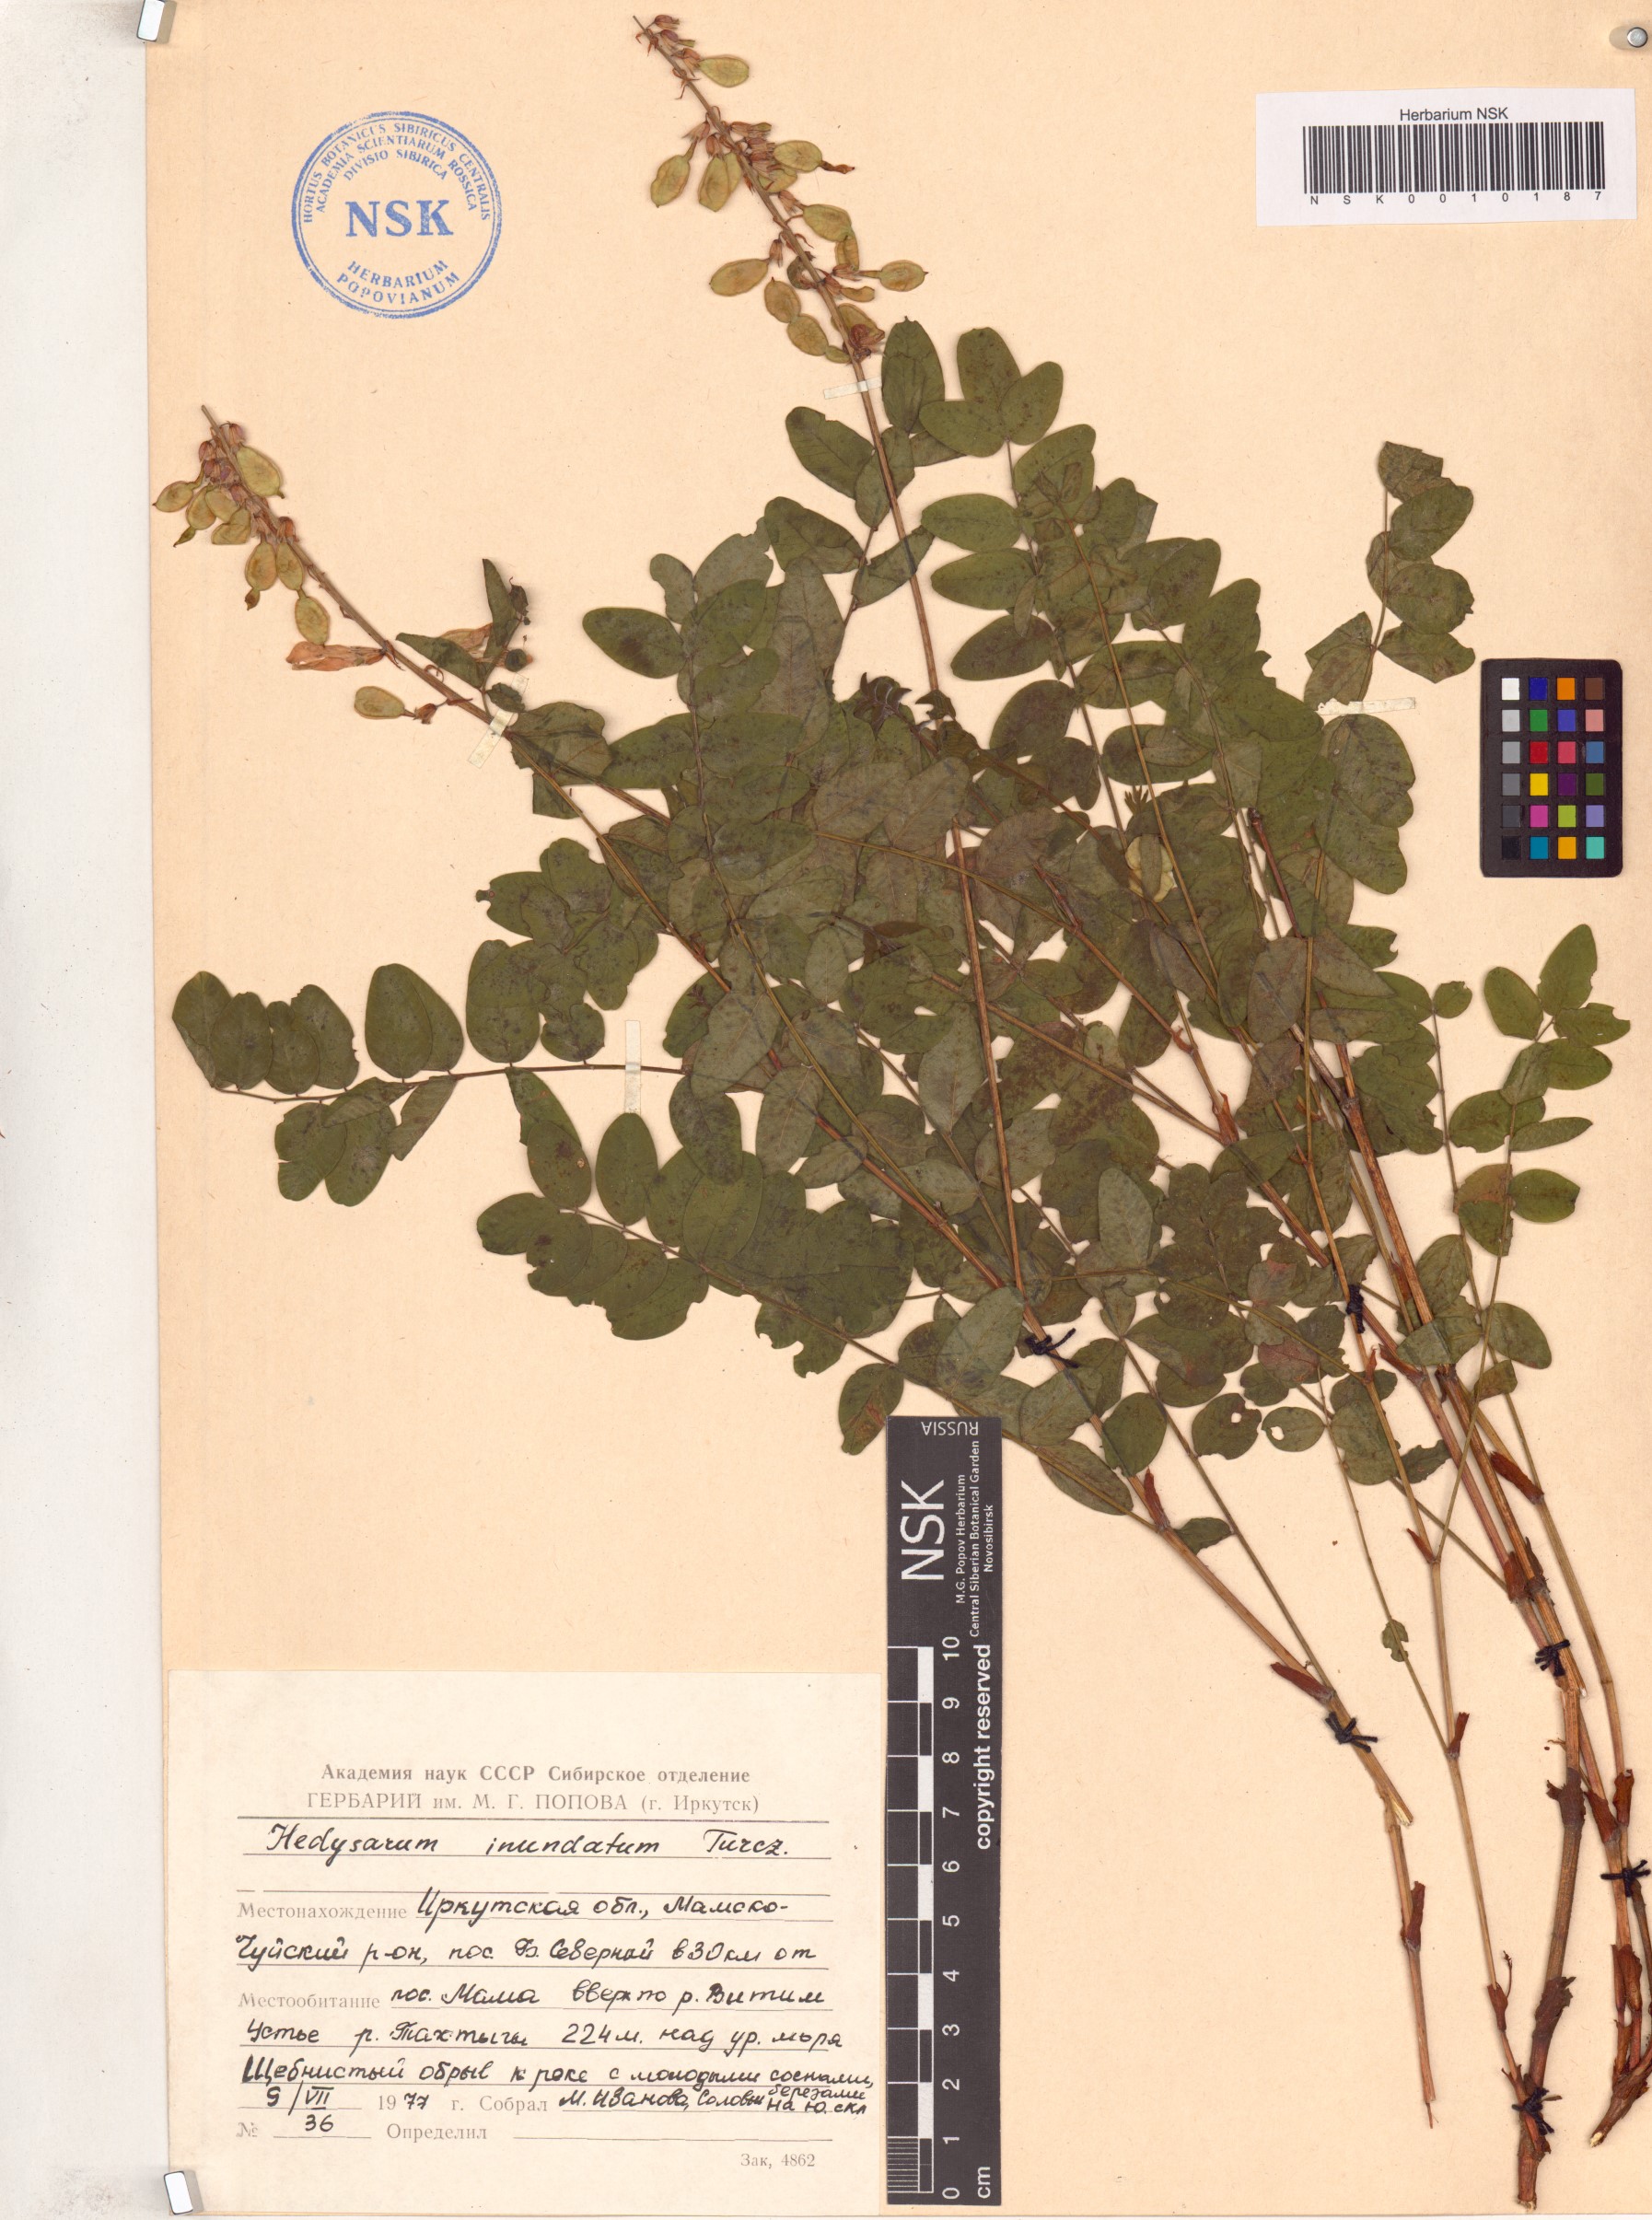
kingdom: Plantae
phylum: Tracheophyta
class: Magnoliopsida
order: Fabales
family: Fabaceae
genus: Hedysarum
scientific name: Hedysarum inundatum
